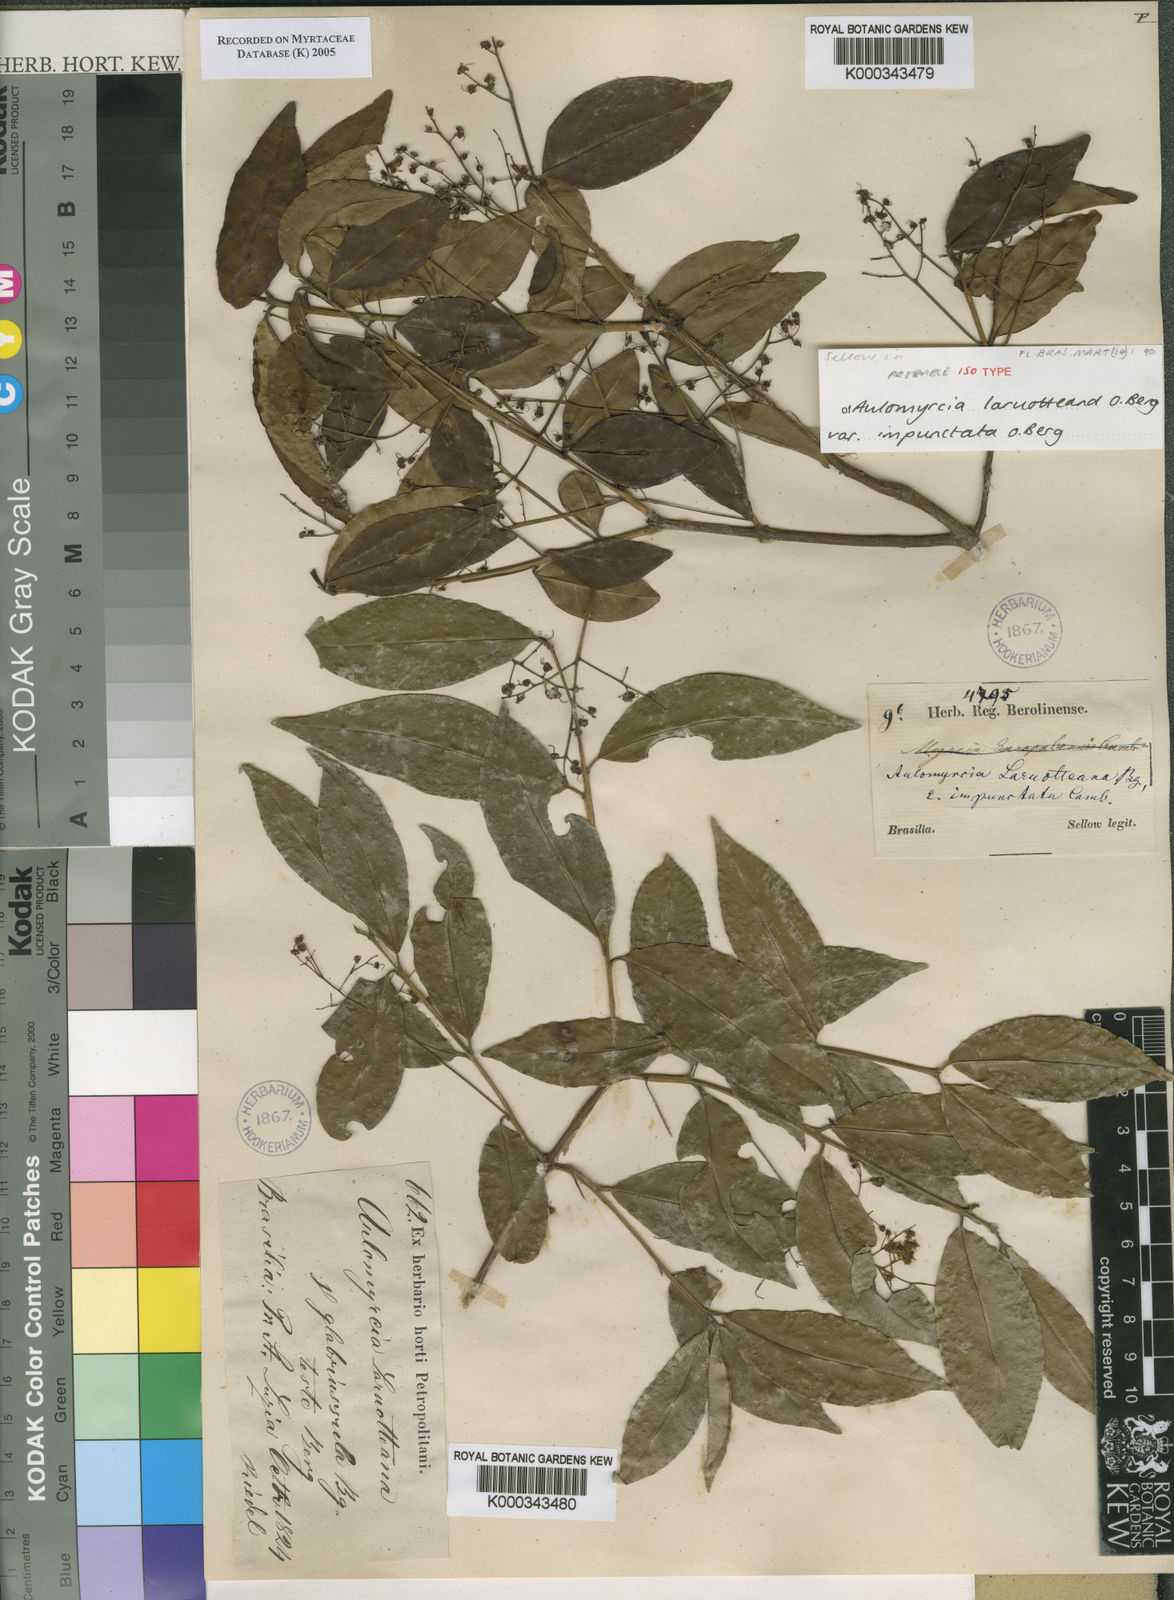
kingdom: Plantae
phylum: Tracheophyta
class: Magnoliopsida
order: Myrtales
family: Myrtaceae
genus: Myrcia
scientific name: Myrcia laruotteana
